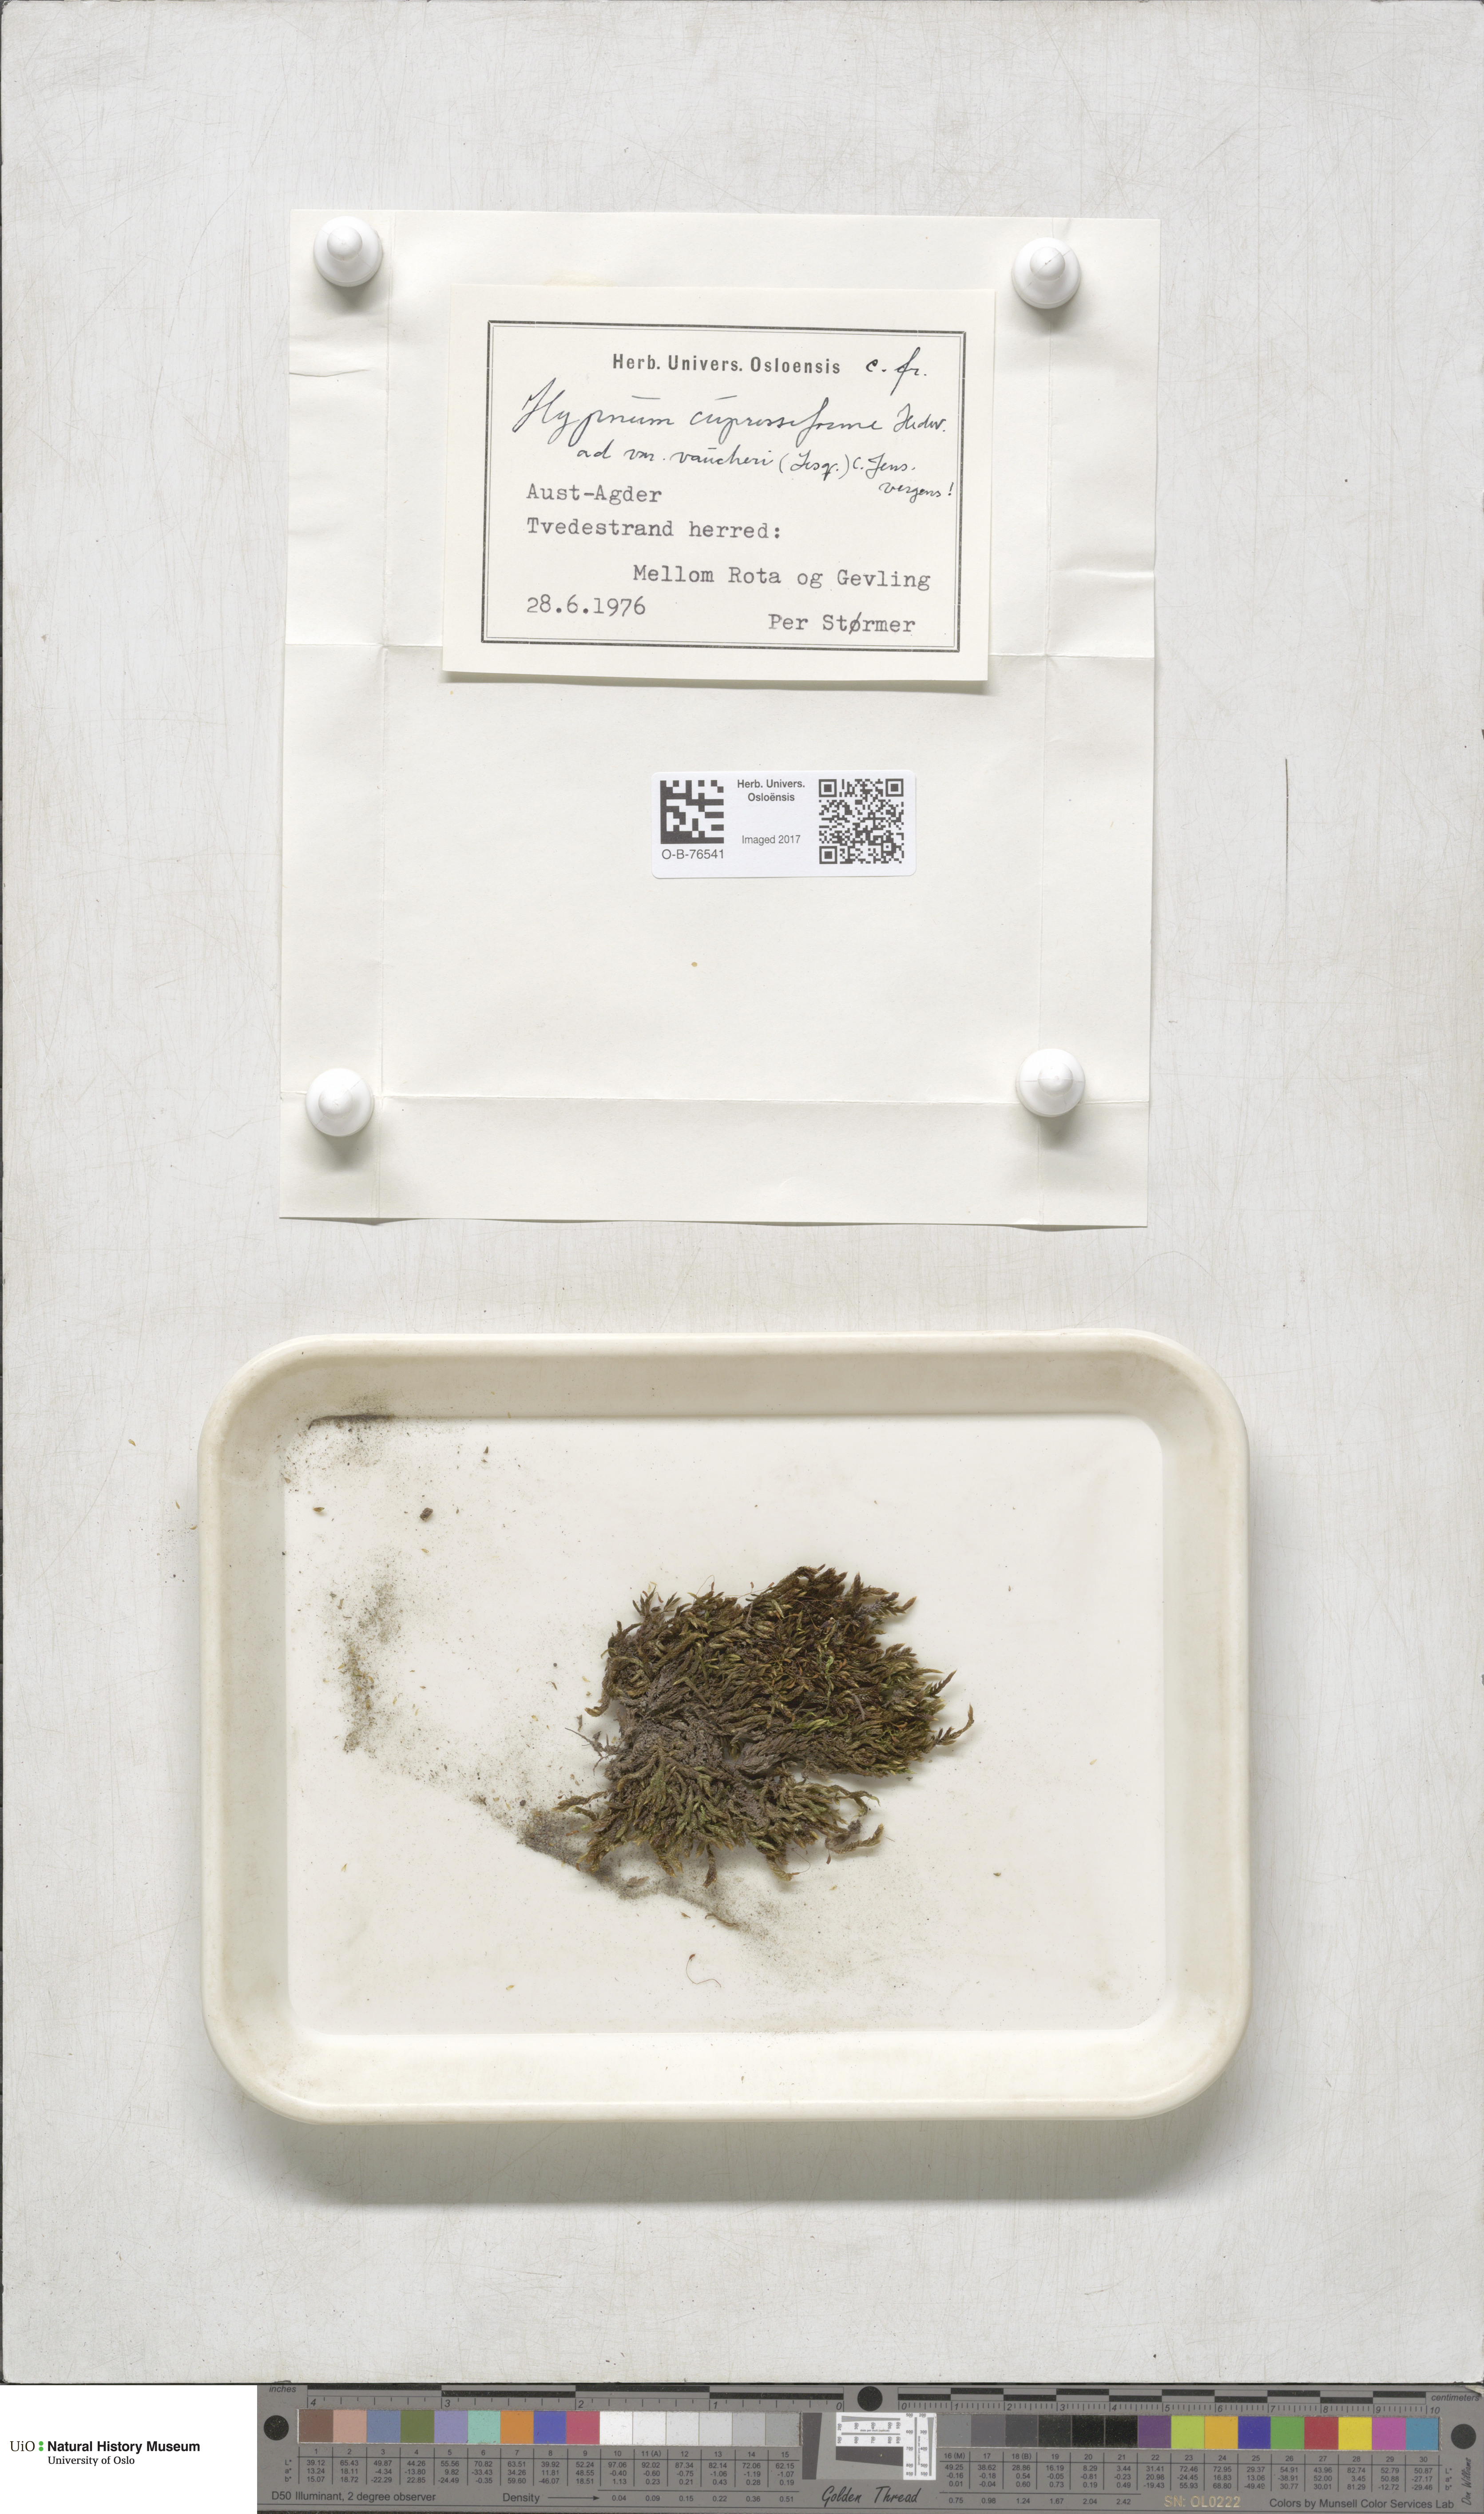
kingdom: Plantae
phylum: Bryophyta
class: Bryopsida
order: Hypnales
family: Hypnaceae
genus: Hypnum
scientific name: Hypnum cupressiforme
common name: Cypress-leaved plait-moss
